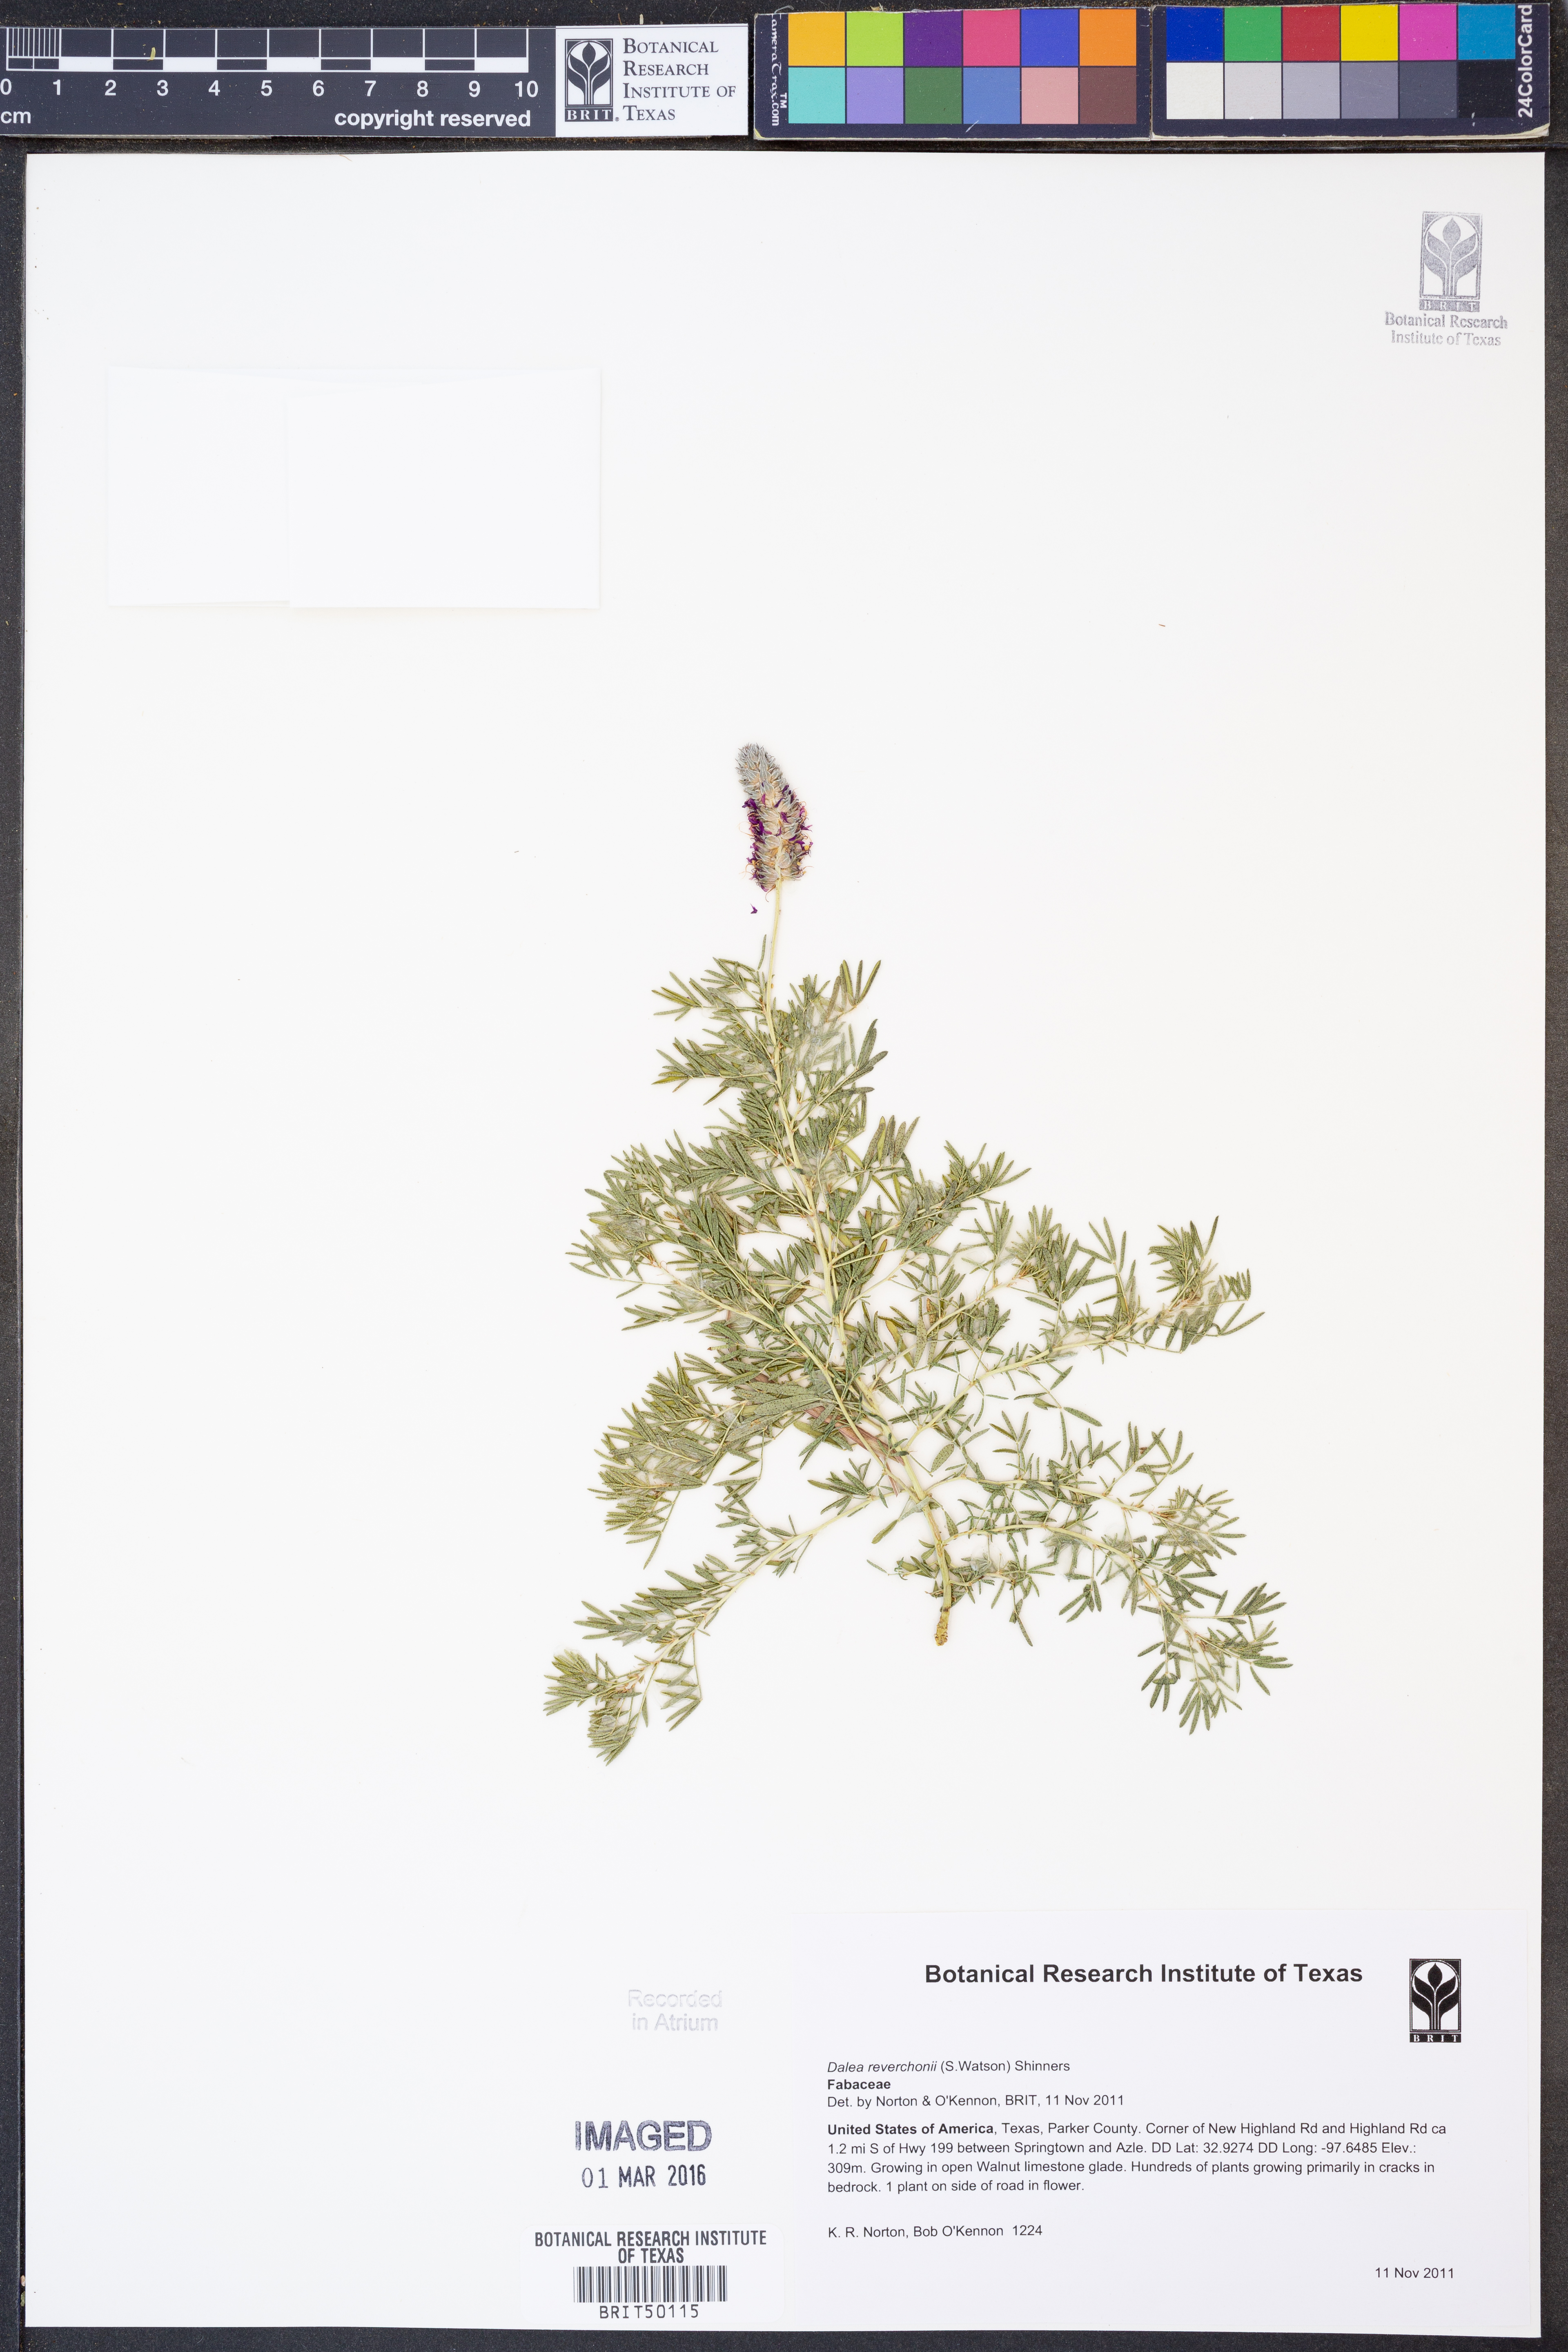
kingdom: Plantae
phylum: Tracheophyta
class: Magnoliopsida
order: Fabales
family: Fabaceae
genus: Dalea
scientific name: Dalea reverchonii
